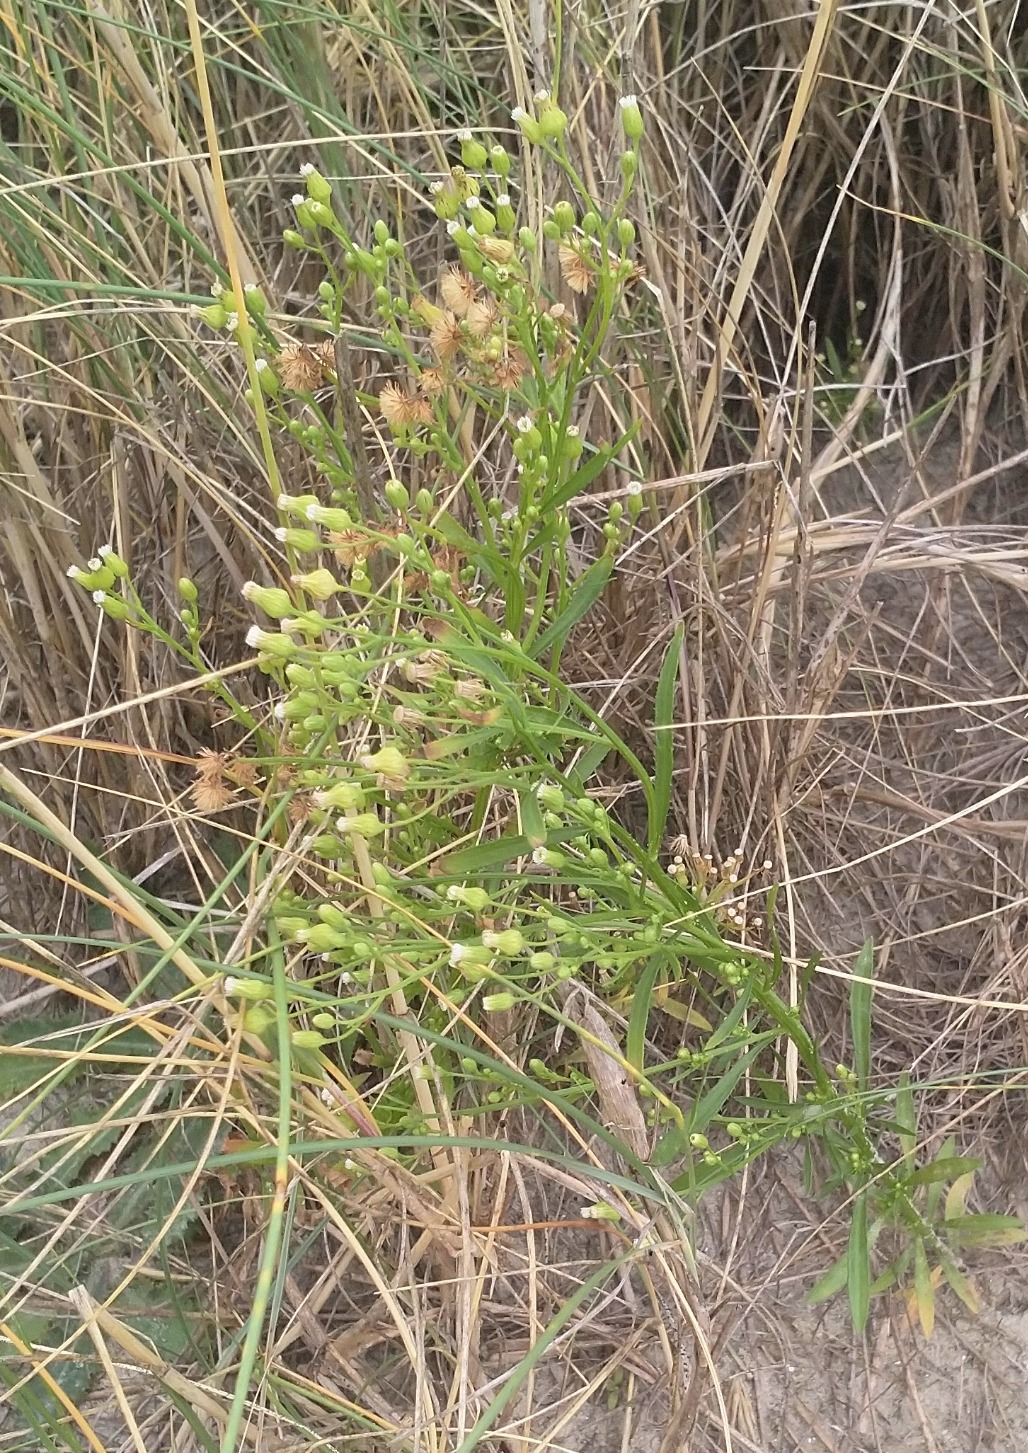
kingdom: Plantae
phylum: Tracheophyta
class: Magnoliopsida
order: Asterales
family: Asteraceae
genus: Erigeron
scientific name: Erigeron canadensis
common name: Kanadisk bakkestjerne
